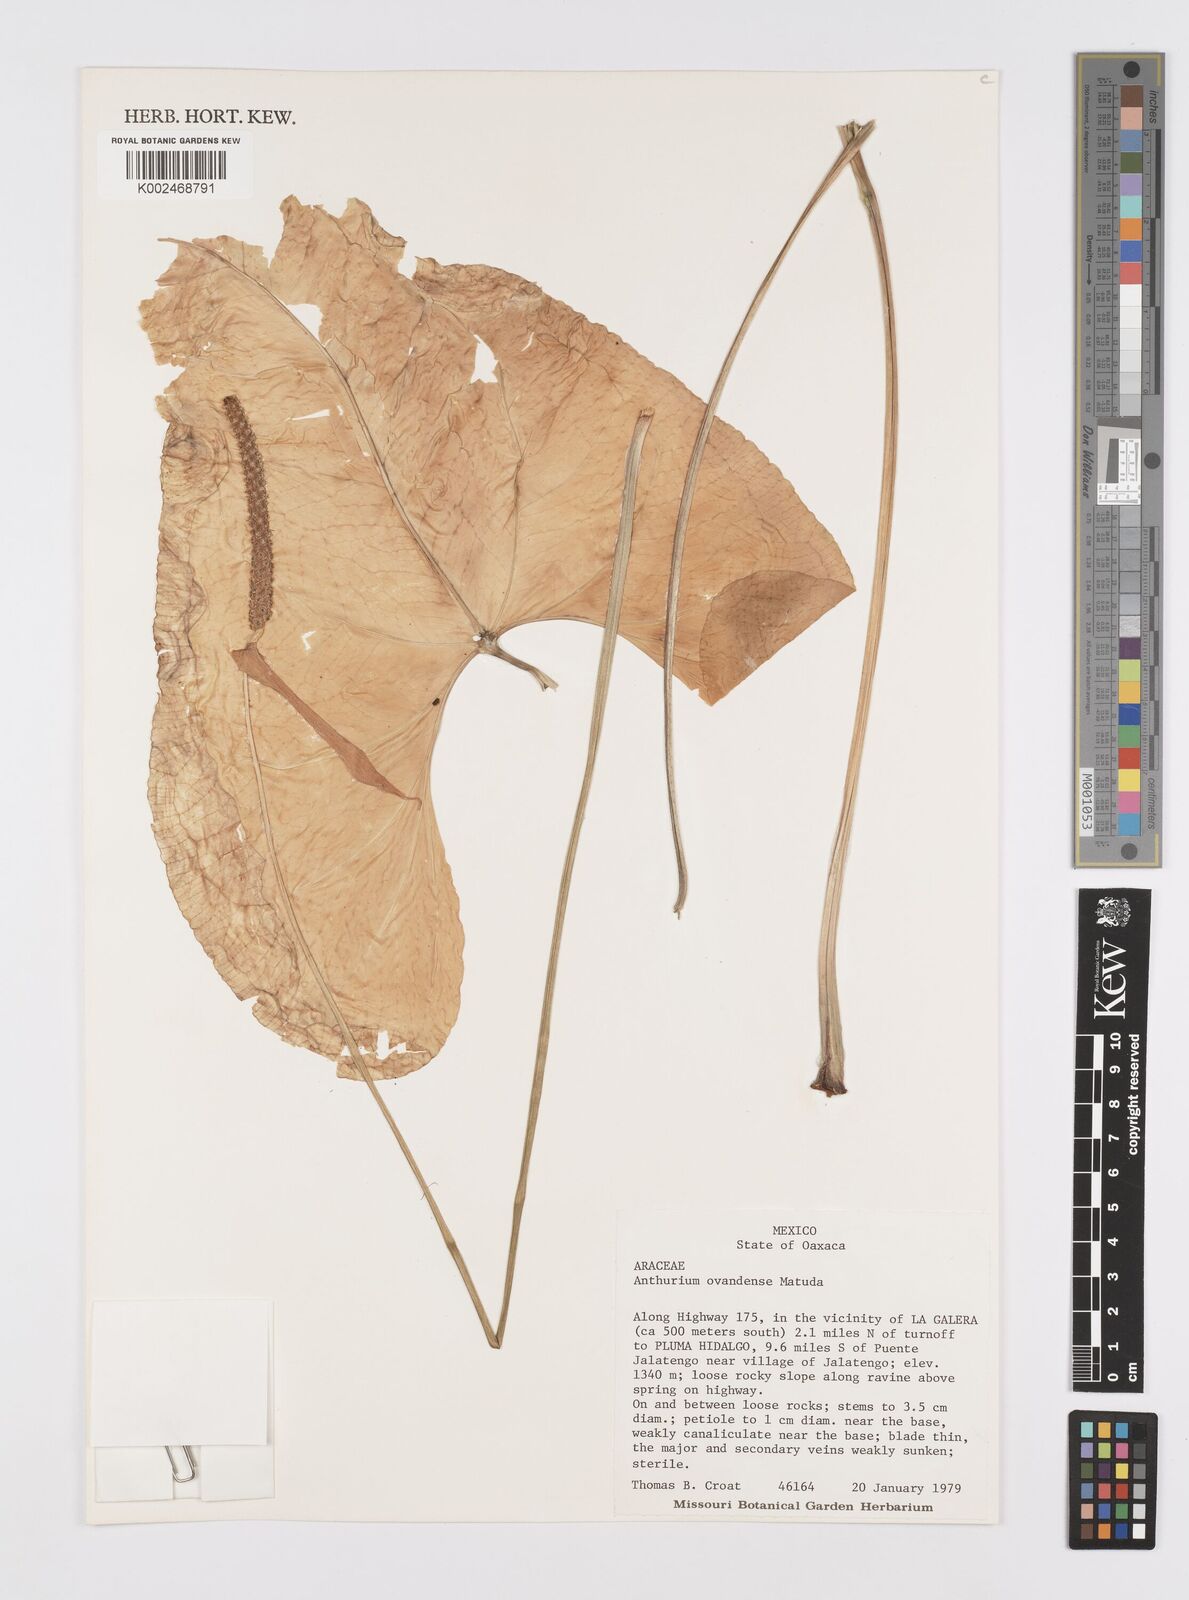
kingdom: Plantae
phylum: Tracheophyta
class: Liliopsida
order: Alismatales
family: Araceae
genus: Anthurium
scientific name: Anthurium ocotepecense
